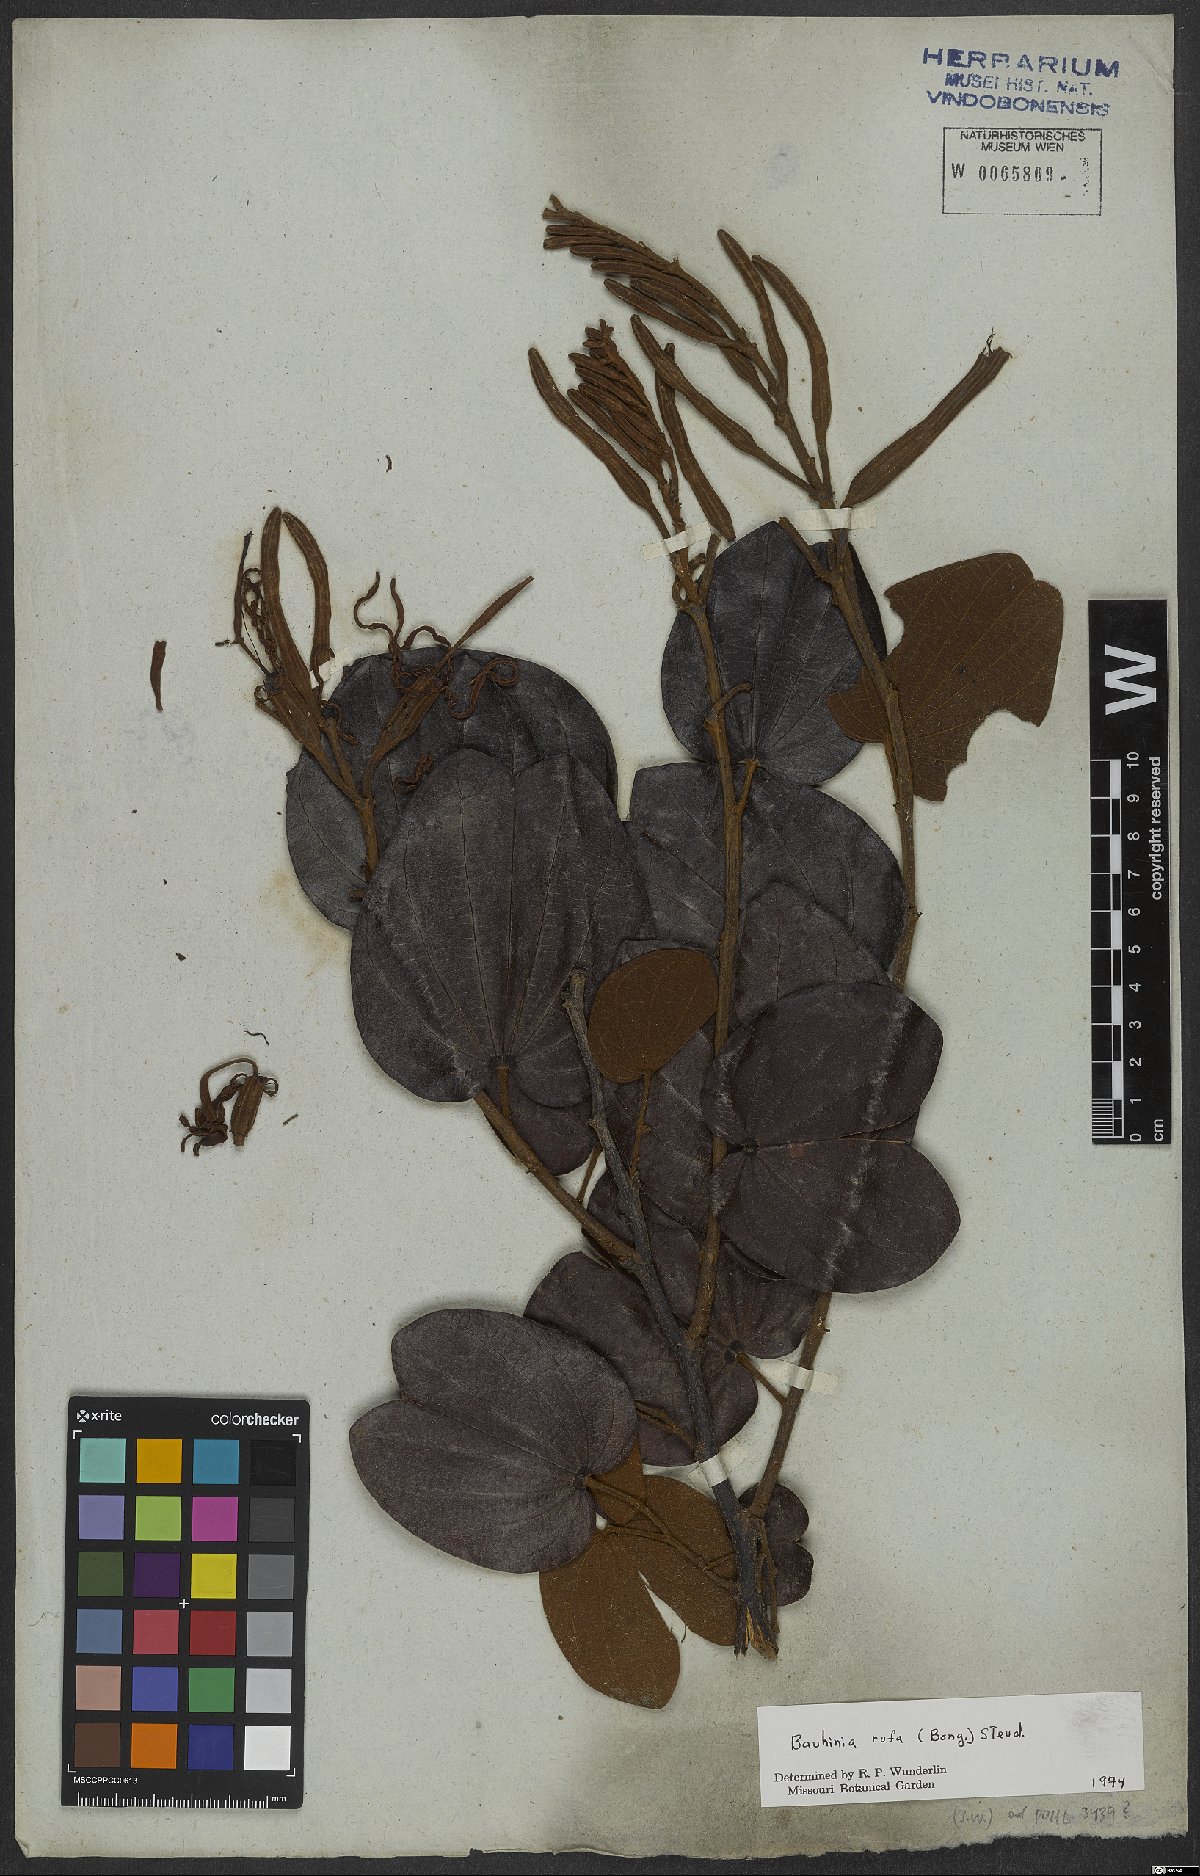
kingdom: Plantae
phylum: Tracheophyta
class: Magnoliopsida
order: Fabales
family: Fabaceae
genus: Bauhinia
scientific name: Bauhinia rufa
